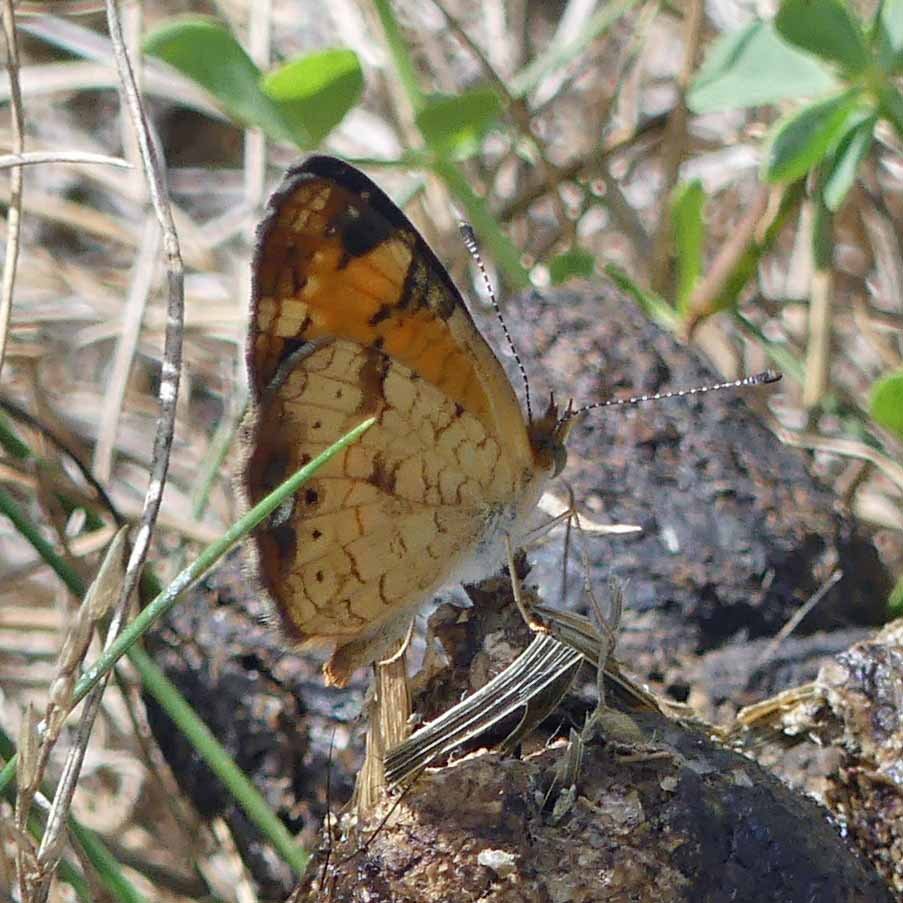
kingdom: Animalia
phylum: Arthropoda
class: Insecta
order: Lepidoptera
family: Nymphalidae
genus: Phyciodes
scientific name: Phyciodes tharos
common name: Pearl Crescent
